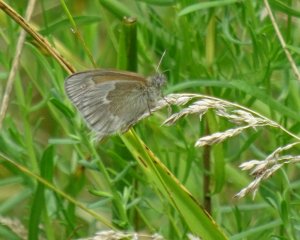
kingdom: Animalia
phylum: Arthropoda
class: Insecta
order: Lepidoptera
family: Nymphalidae
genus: Coenonympha
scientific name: Coenonympha tullia
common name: Large Heath
